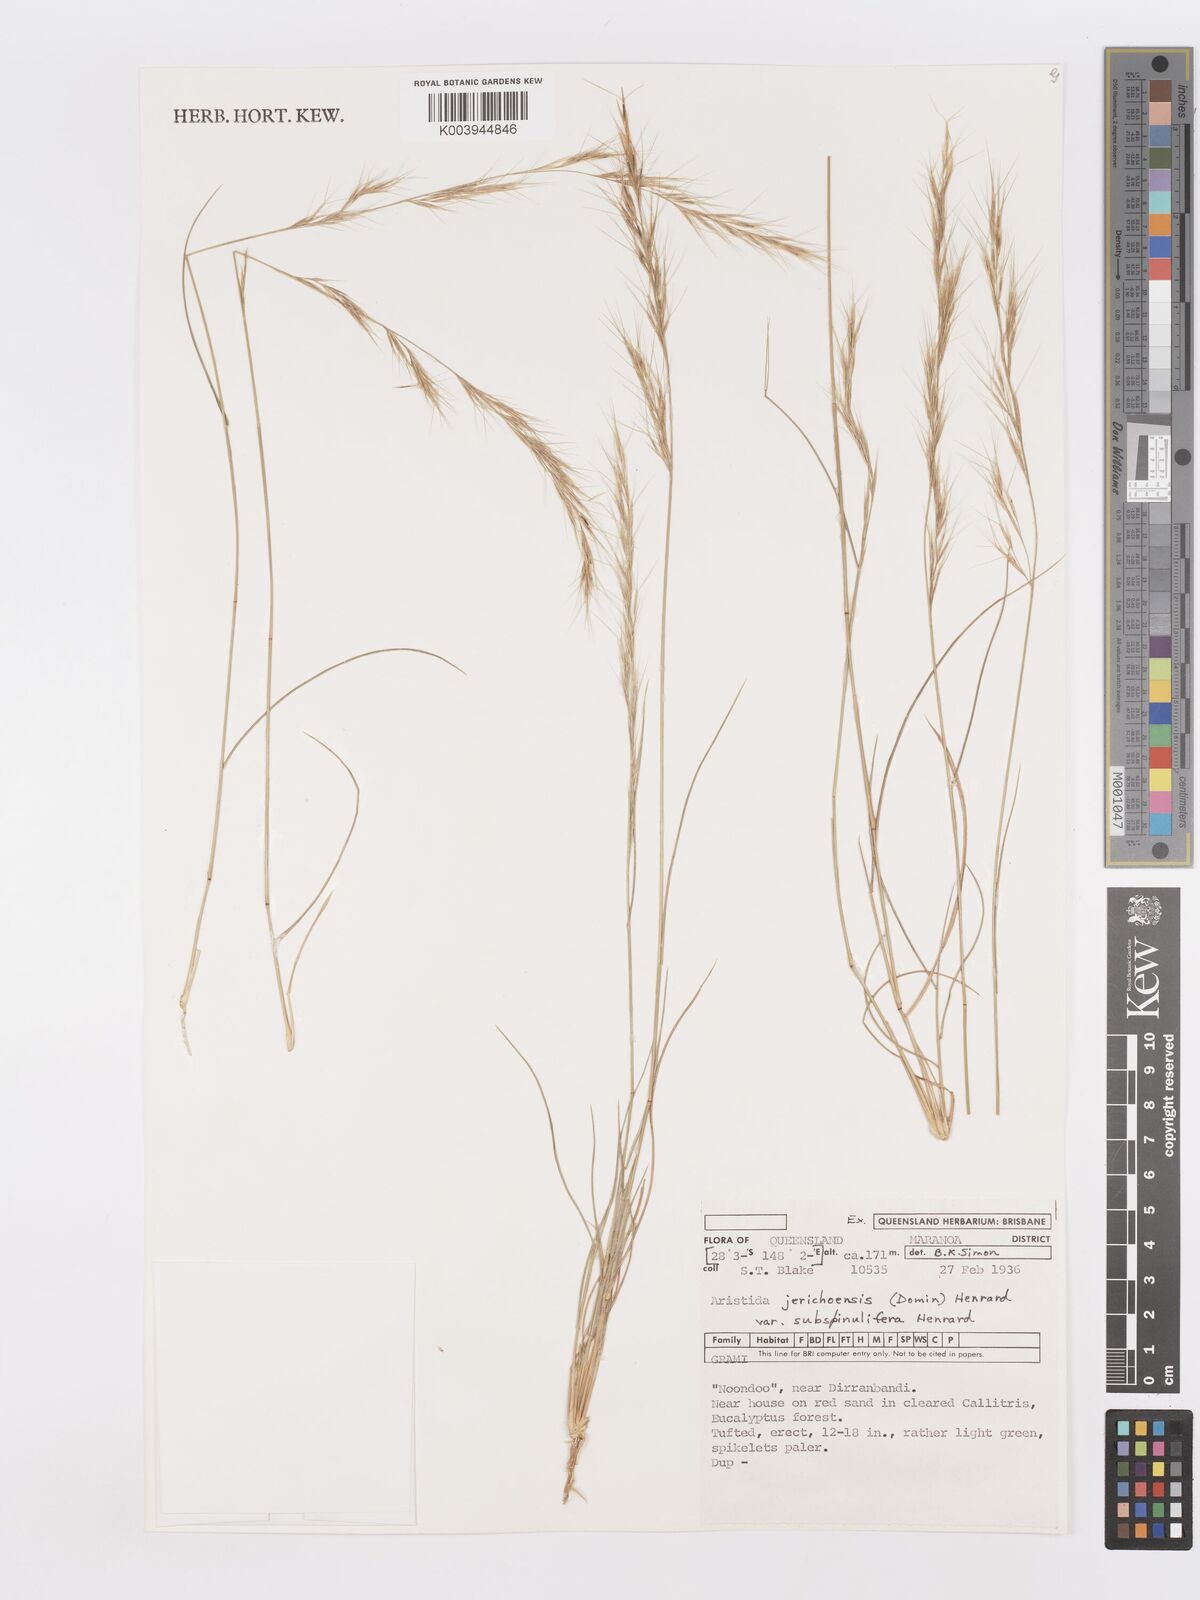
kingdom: Plantae
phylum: Tracheophyta
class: Liliopsida
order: Poales
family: Poaceae
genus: Aristida
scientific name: Aristida jerichoensis
